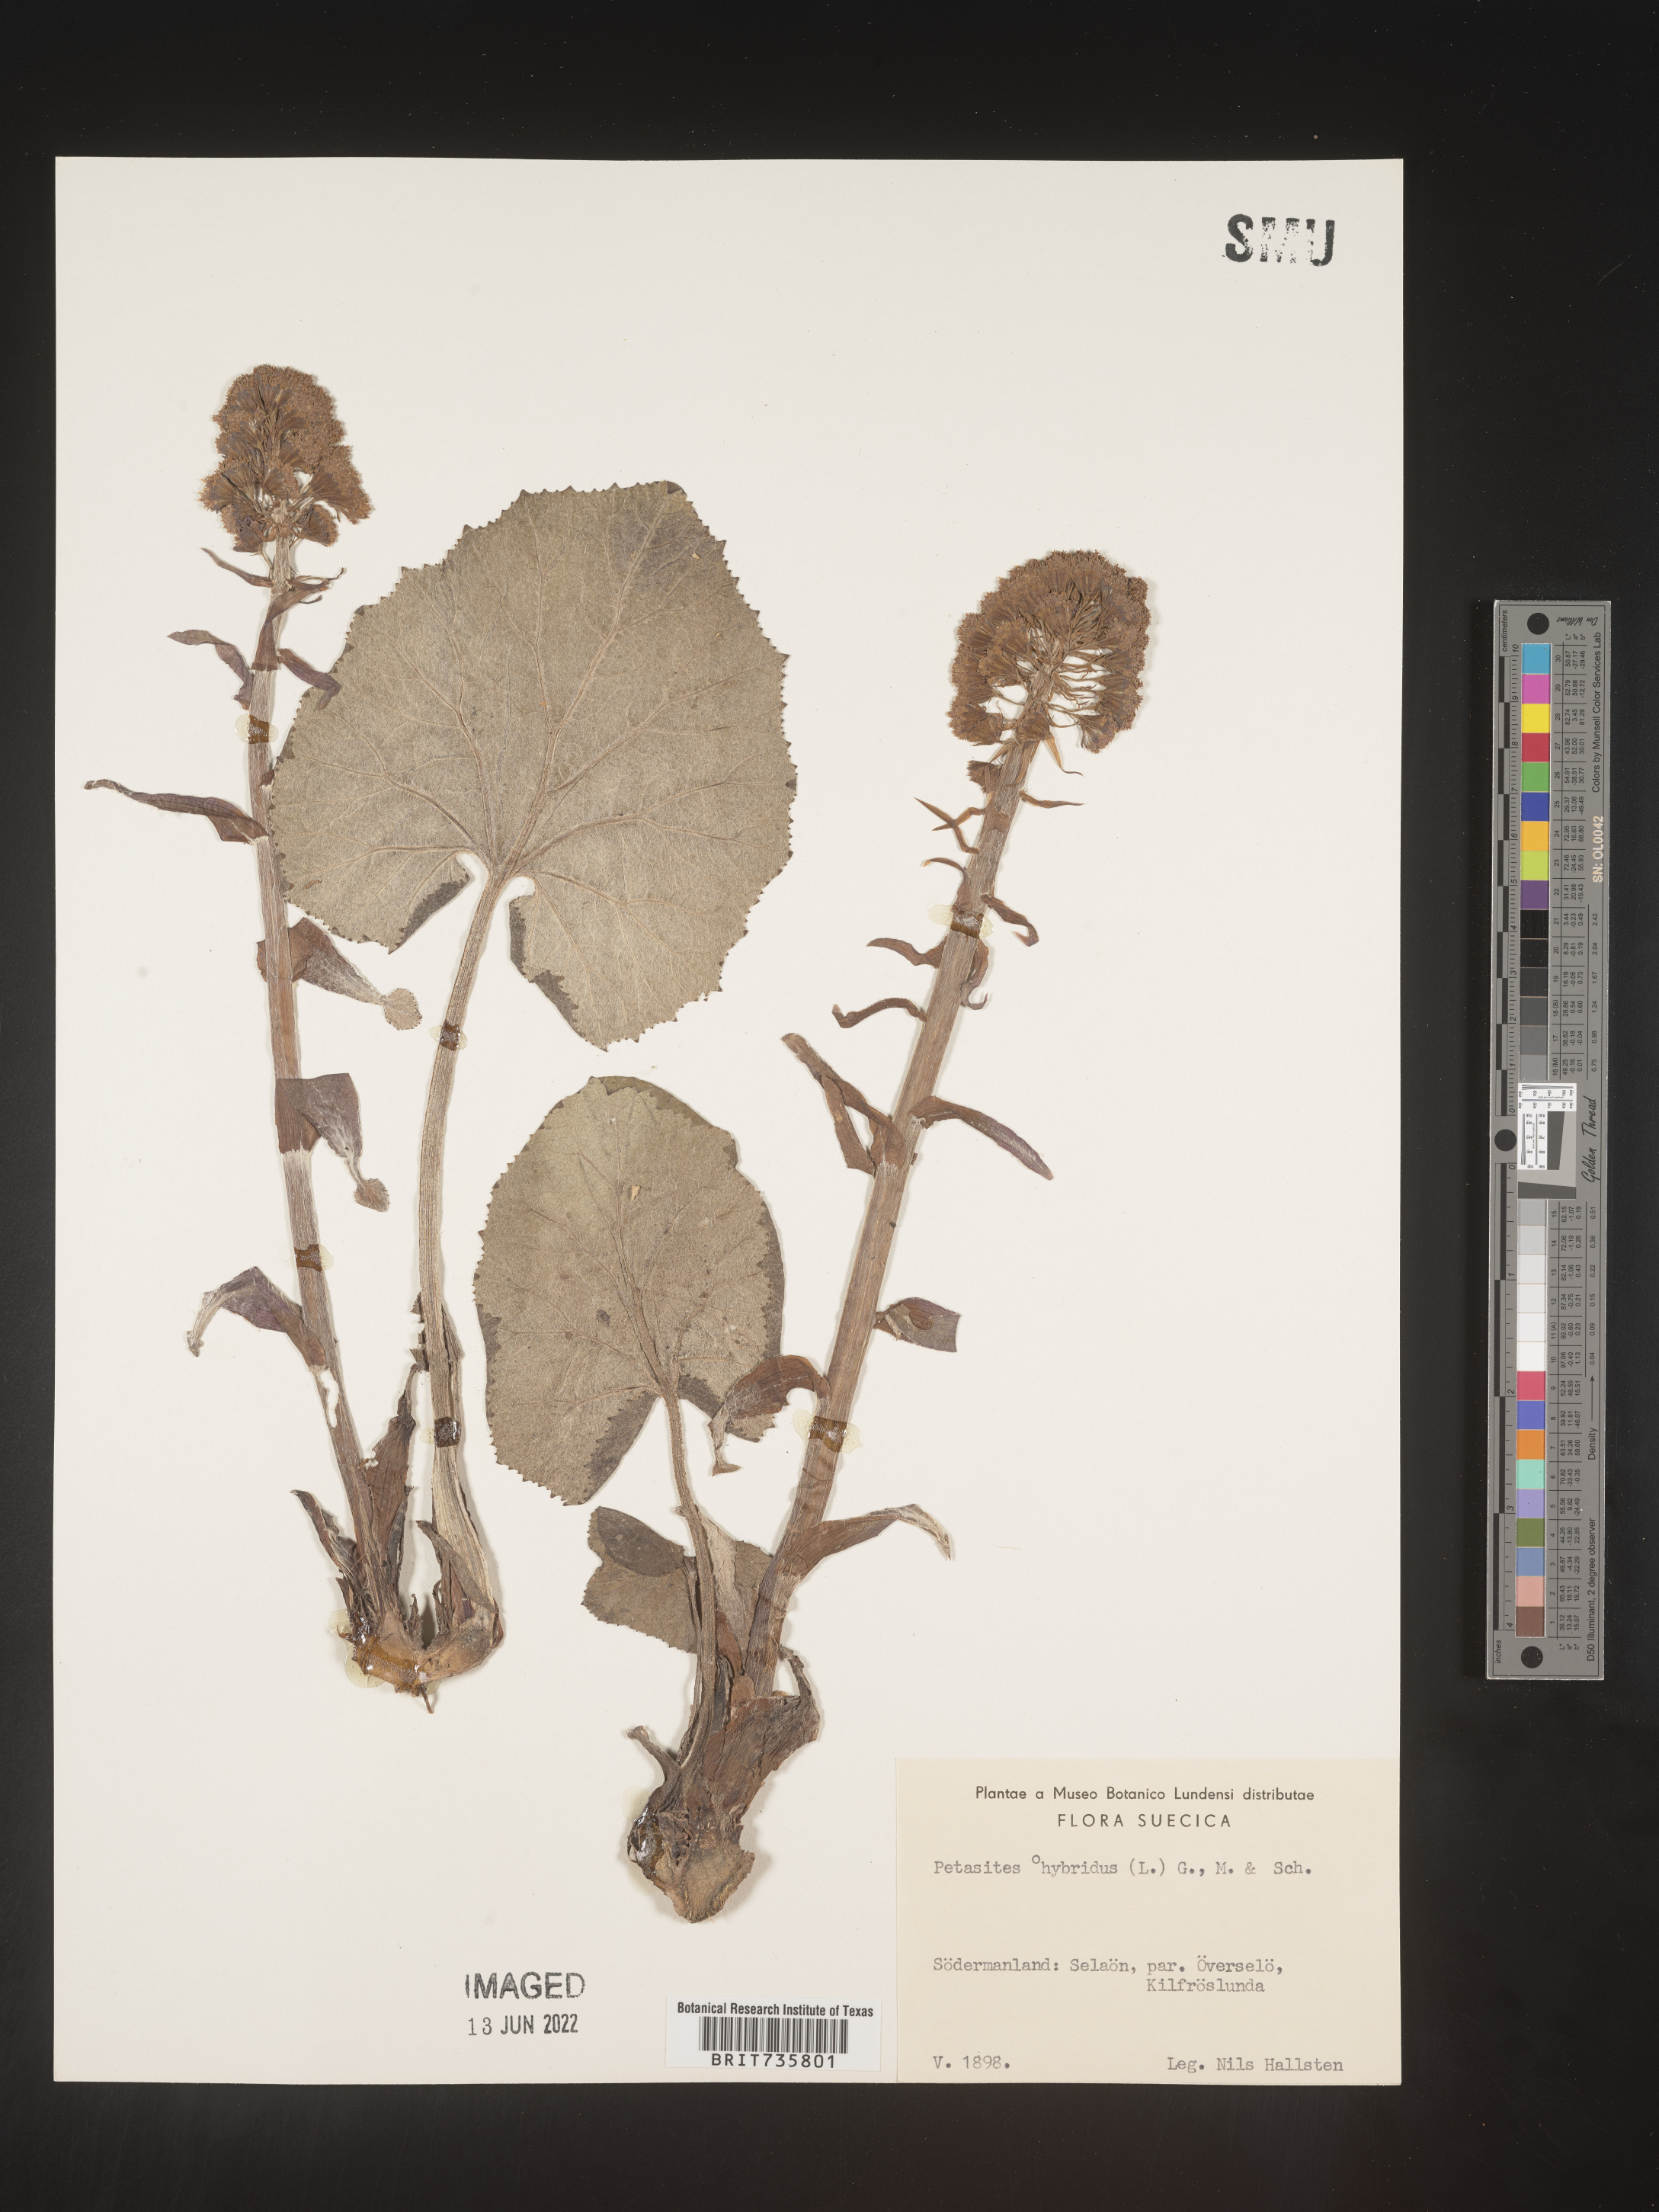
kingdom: Plantae
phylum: Tracheophyta
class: Magnoliopsida
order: Asterales
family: Asteraceae
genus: Petasites
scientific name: Petasites
